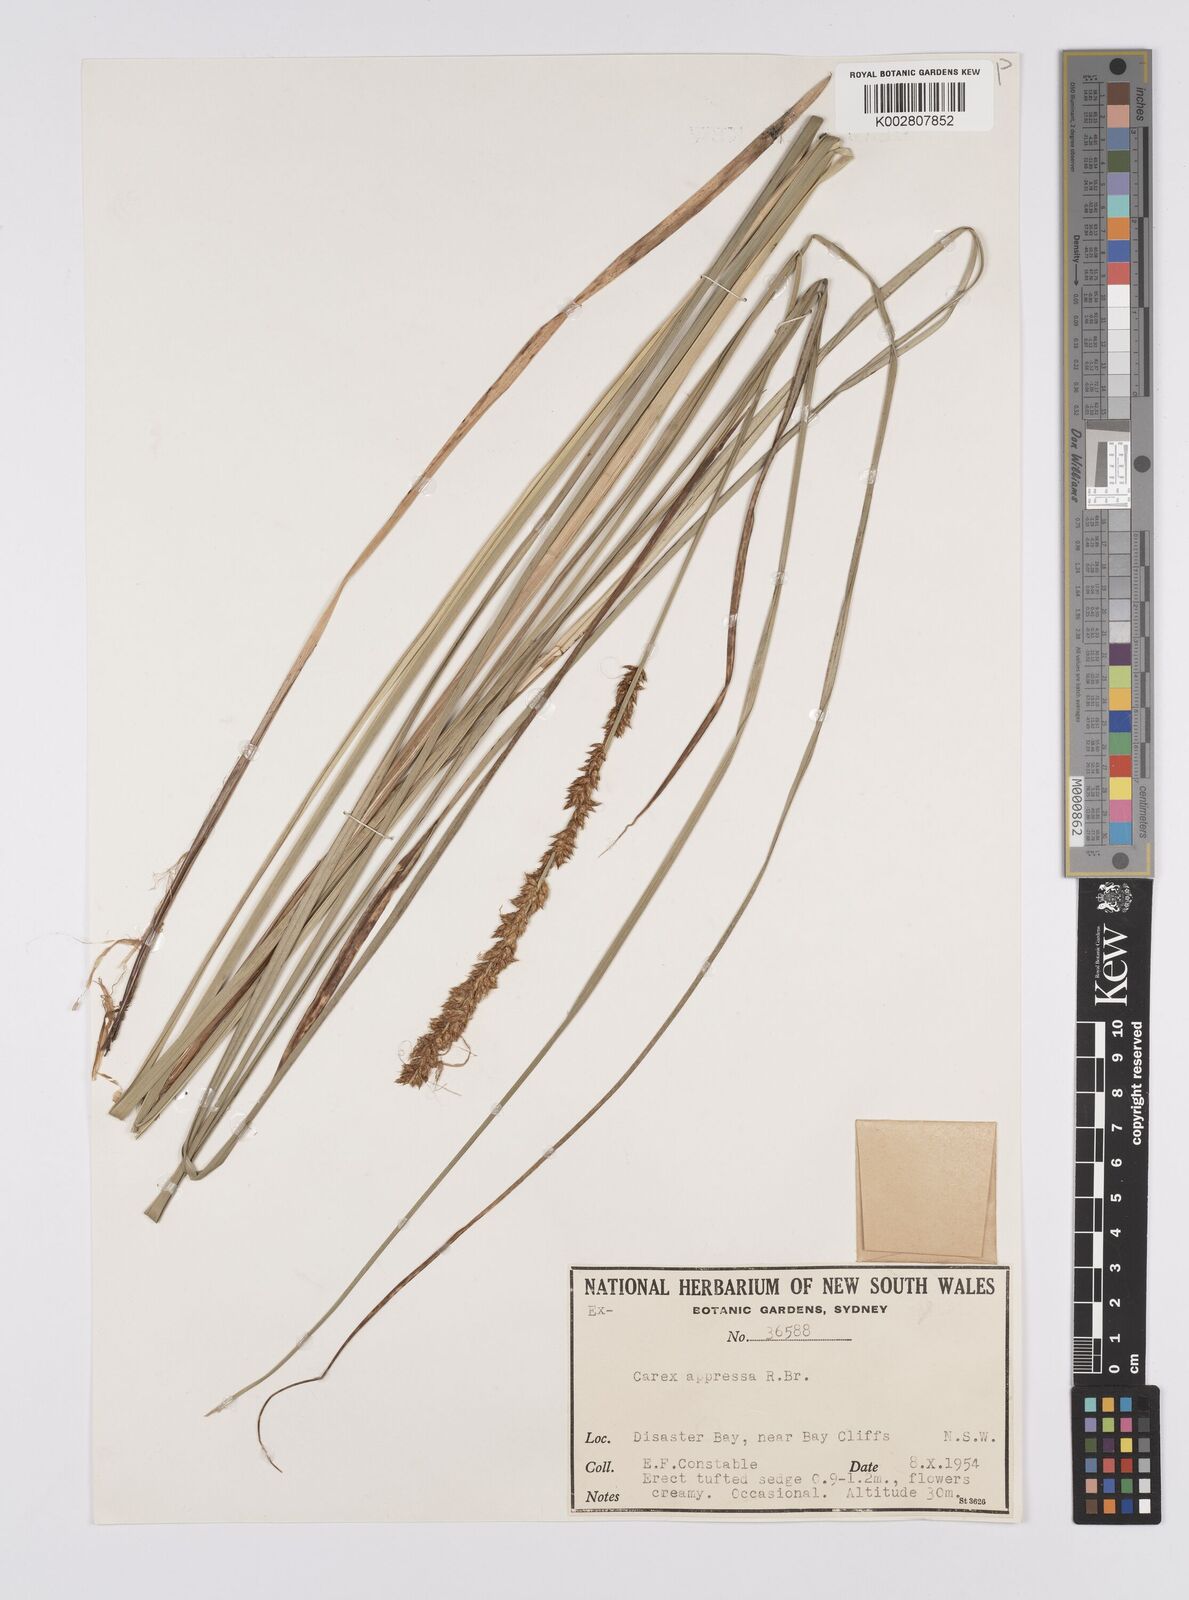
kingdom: Plantae
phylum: Tracheophyta
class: Liliopsida
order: Poales
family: Cyperaceae
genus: Carex
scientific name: Carex appressa
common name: Tussock sedge
